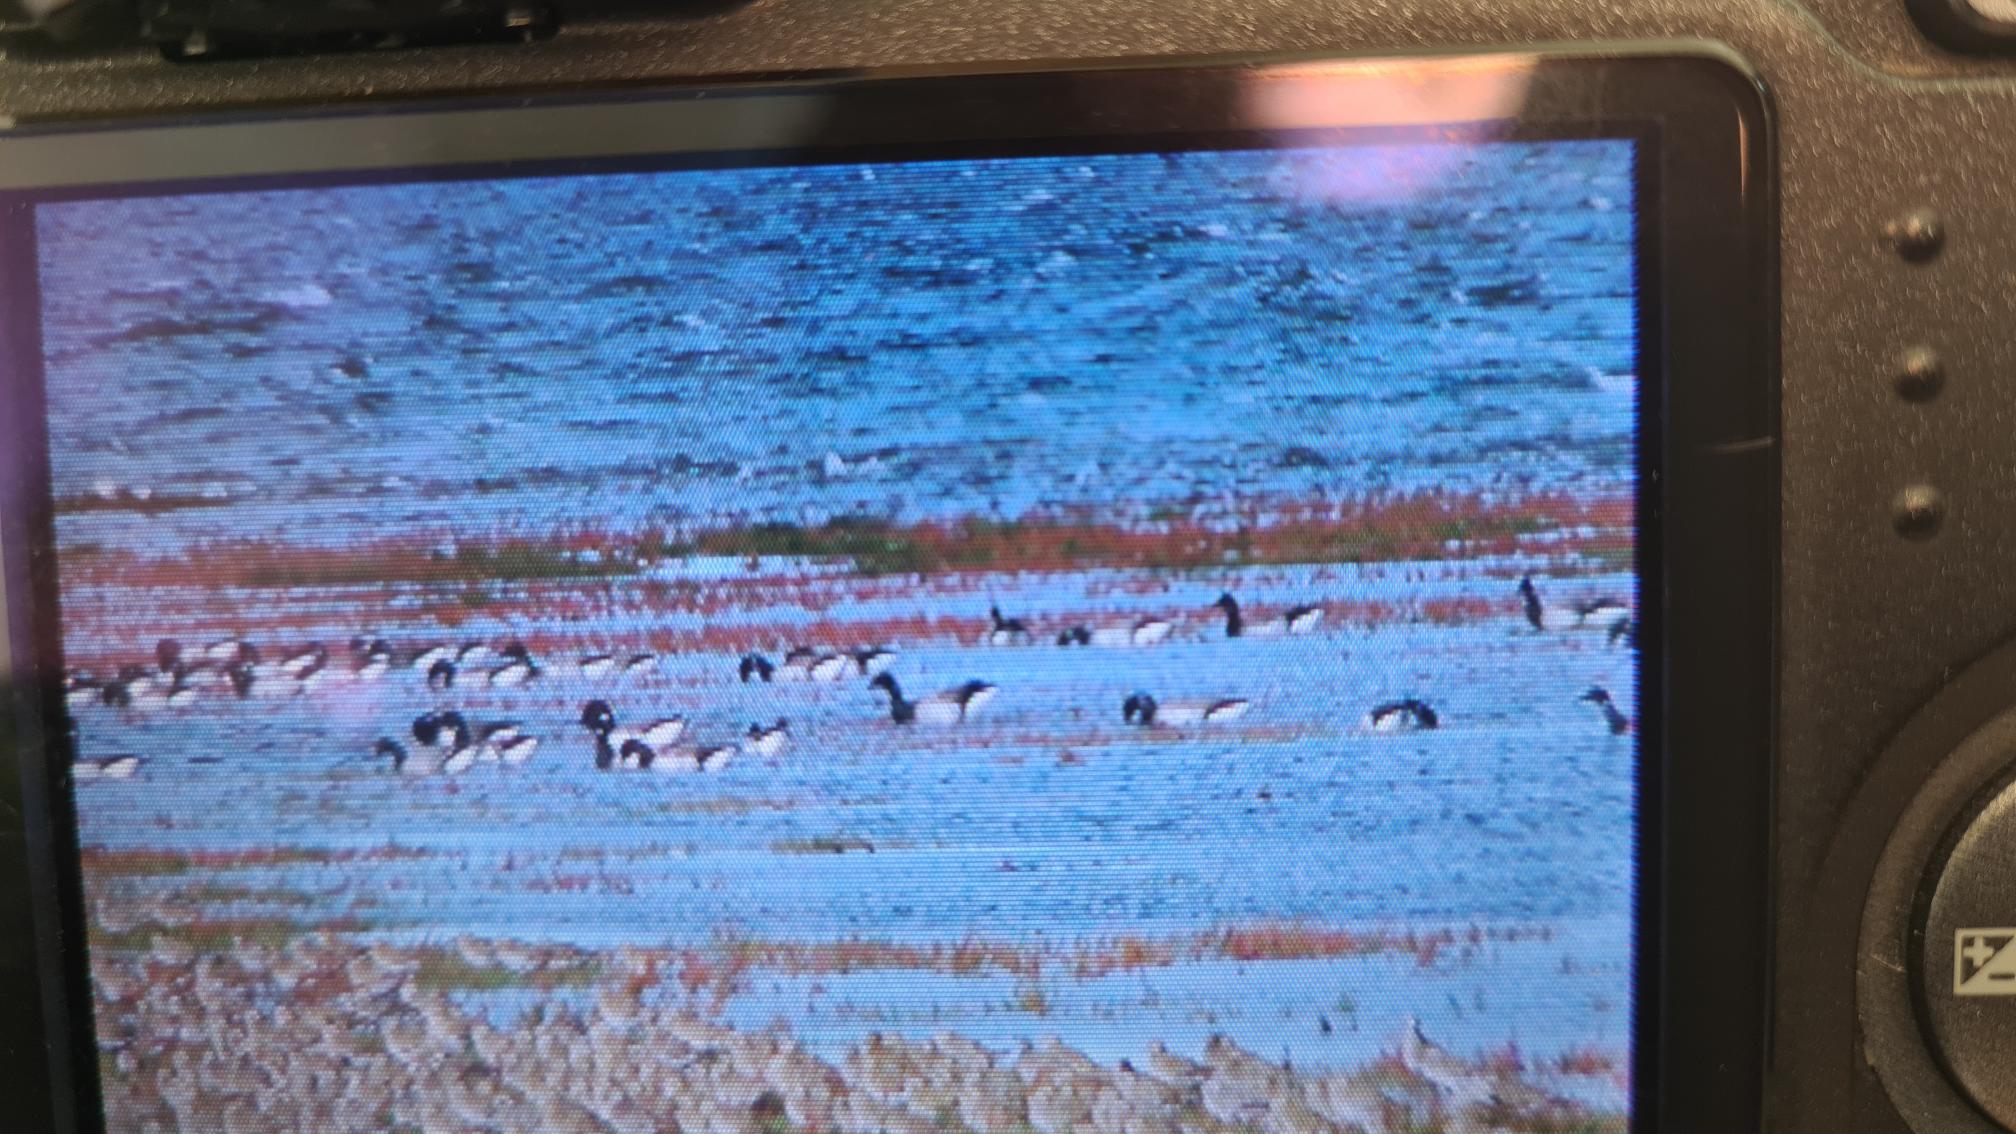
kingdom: Animalia
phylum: Chordata
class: Aves
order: Anseriformes
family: Anatidae
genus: Branta
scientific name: Branta bernicla
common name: Lysbuget knortegås
